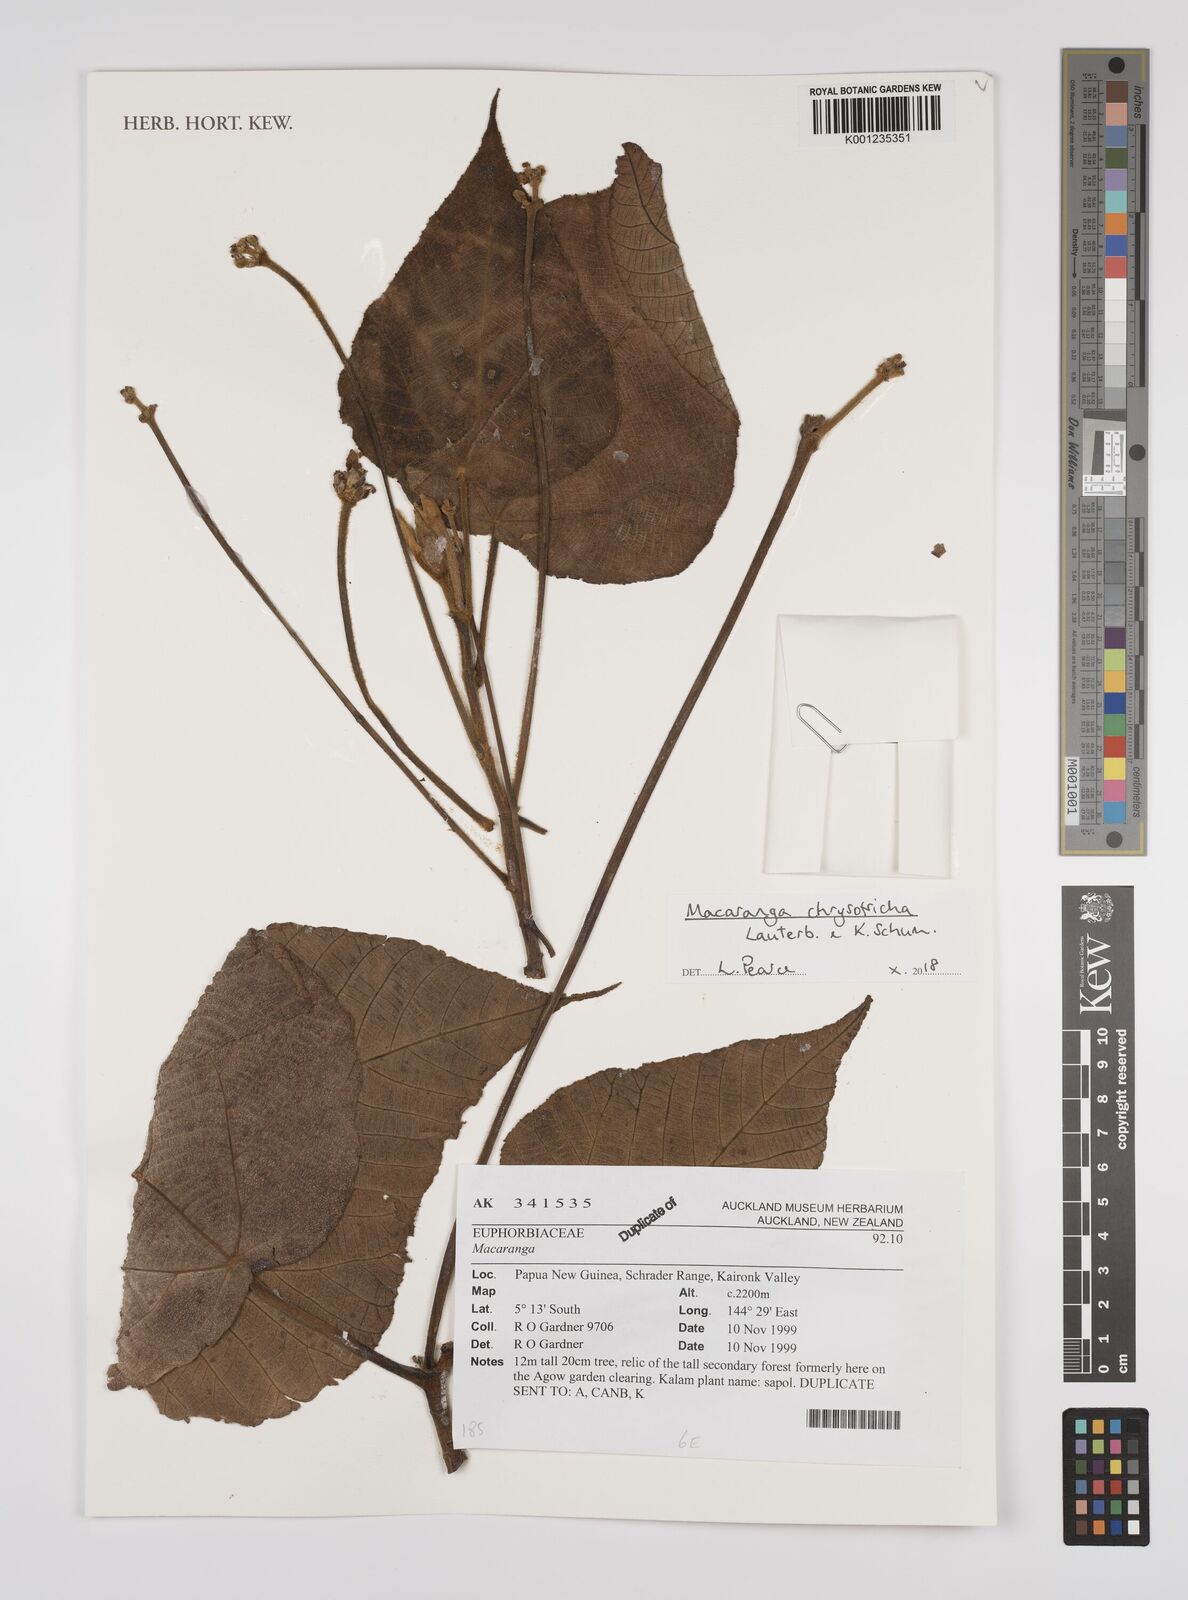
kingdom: Plantae
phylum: Tracheophyta
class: Magnoliopsida
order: Malpighiales
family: Euphorbiaceae
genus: Macaranga
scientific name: Macaranga chrysotricha
